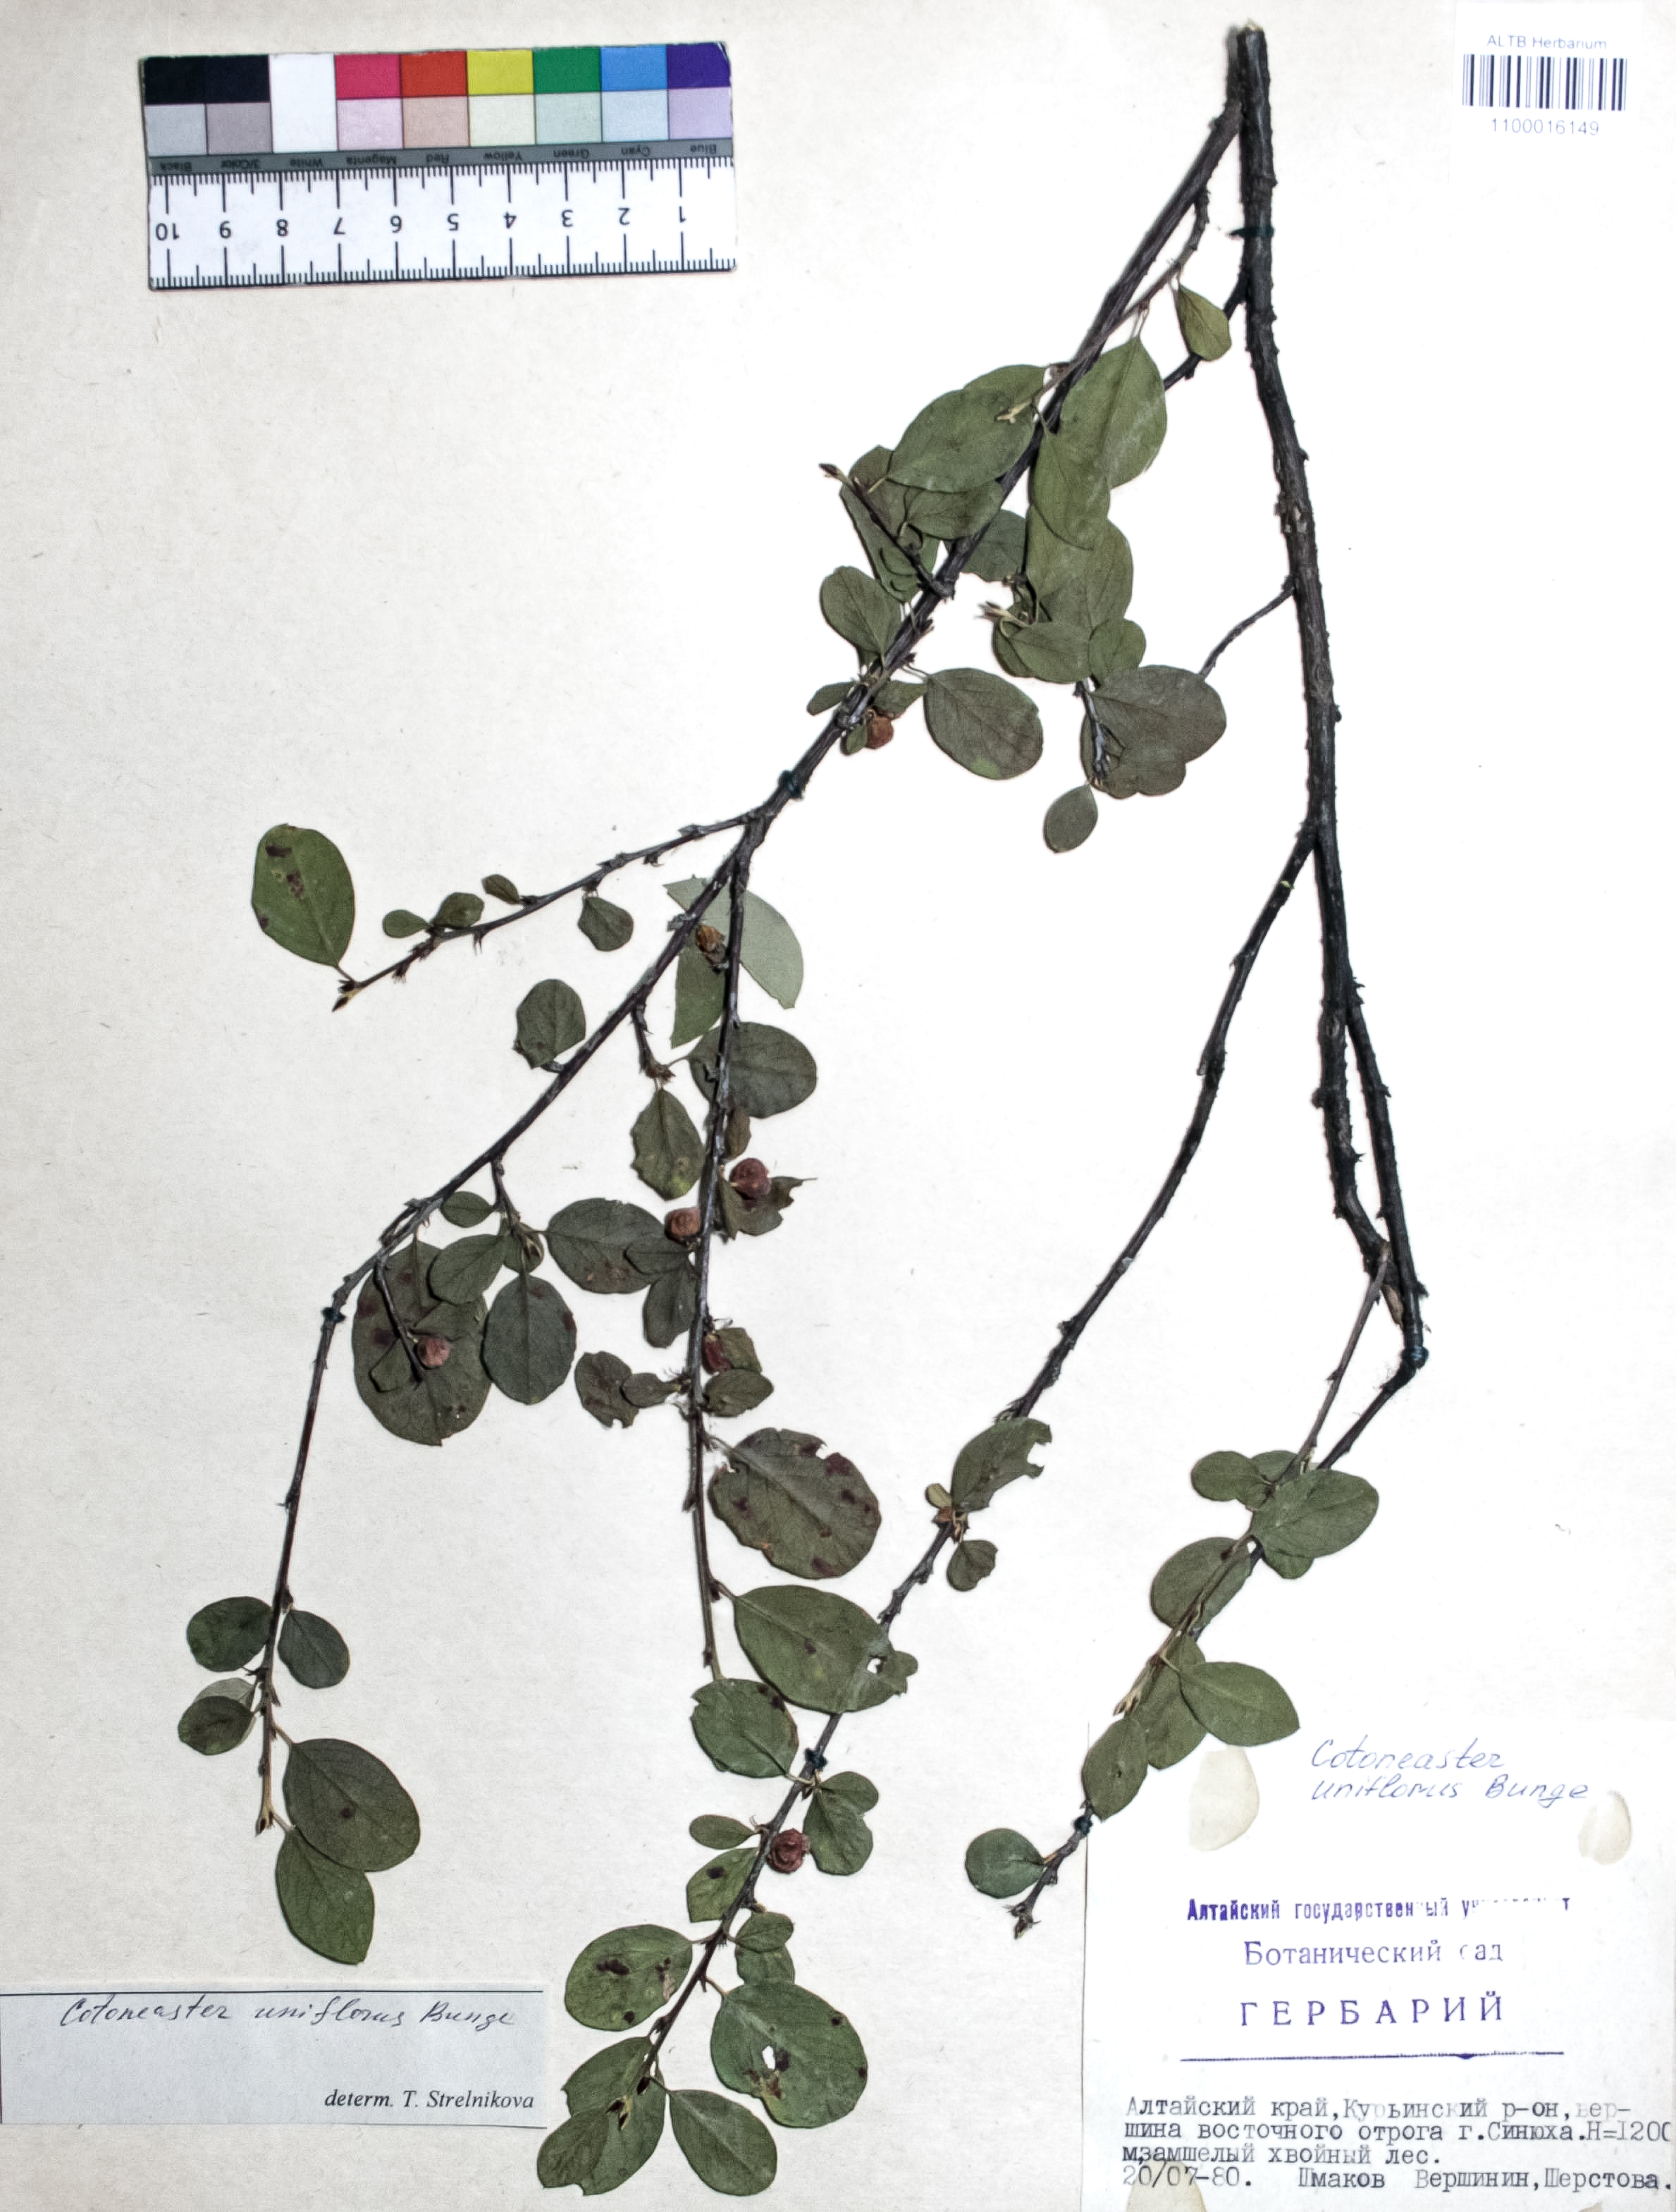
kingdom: Plantae
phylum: Tracheophyta
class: Magnoliopsida
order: Rosales
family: Rosaceae
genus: Cotoneaster
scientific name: Cotoneaster uniflorus
